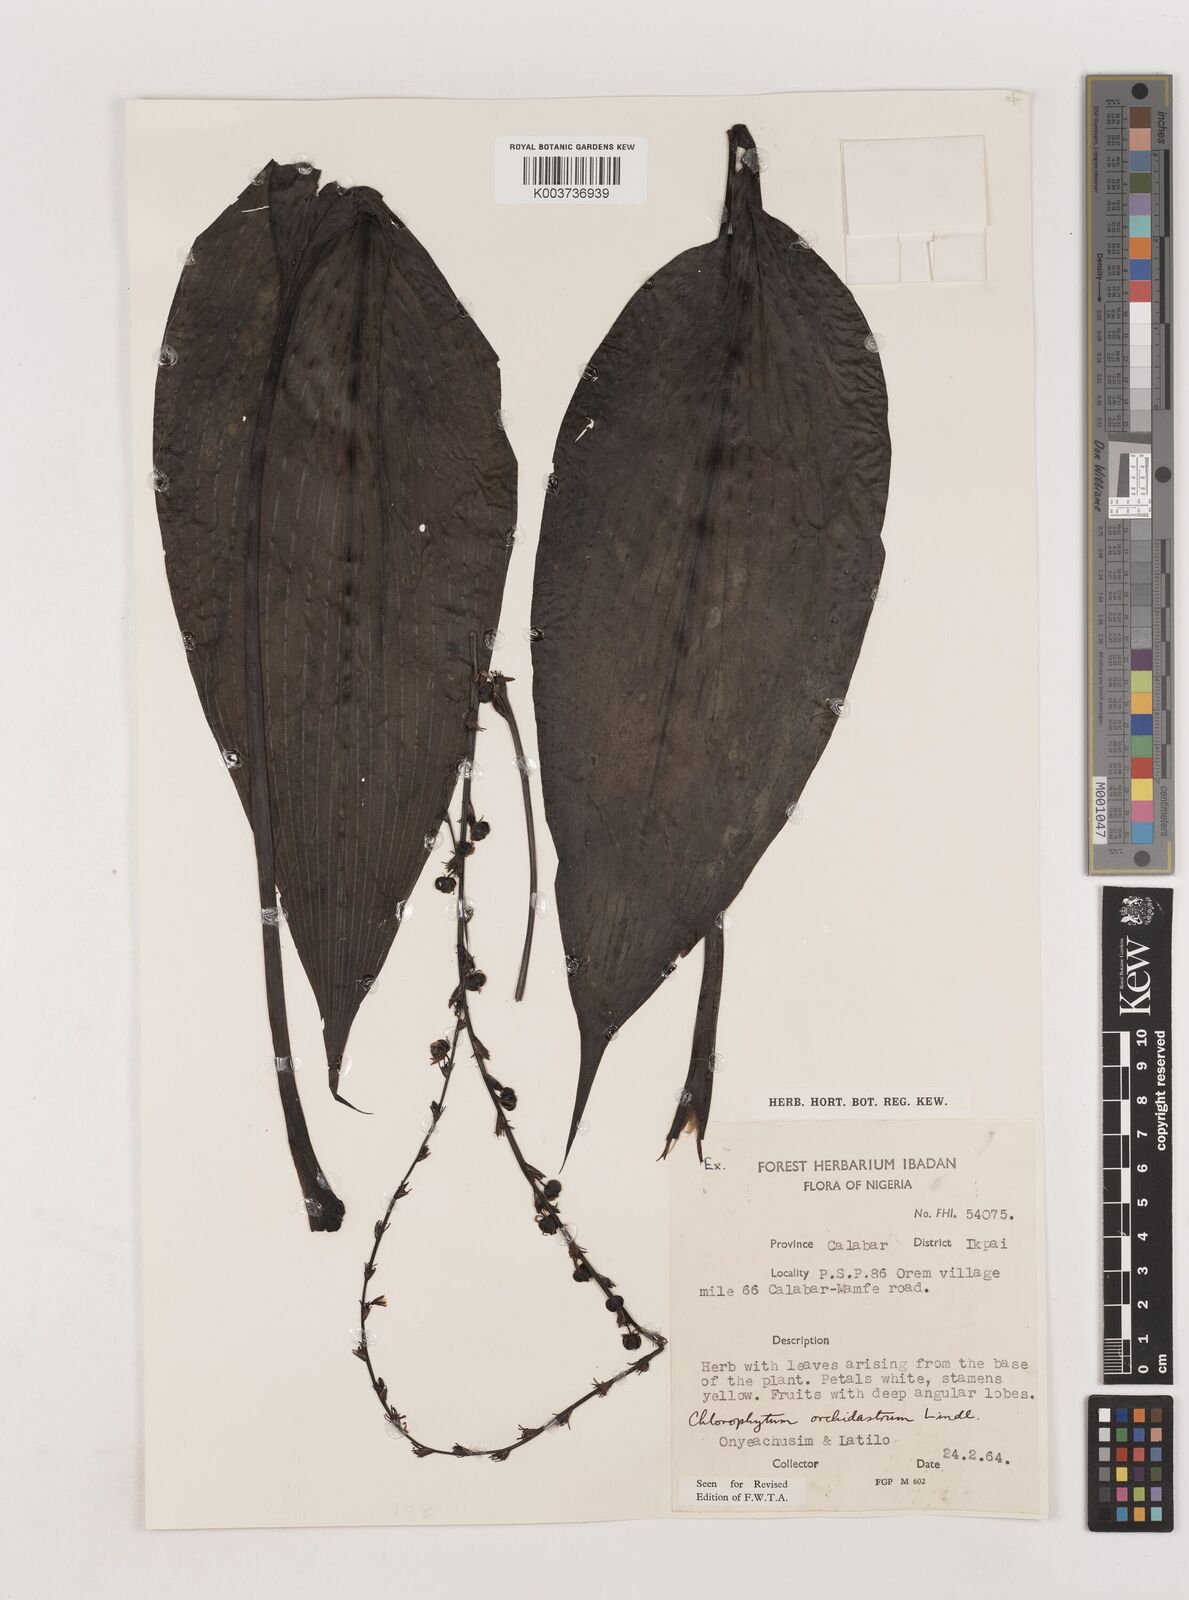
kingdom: Plantae
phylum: Tracheophyta
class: Liliopsida
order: Asparagales
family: Asparagaceae
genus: Chlorophytum
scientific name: Chlorophytum orchidastrum
